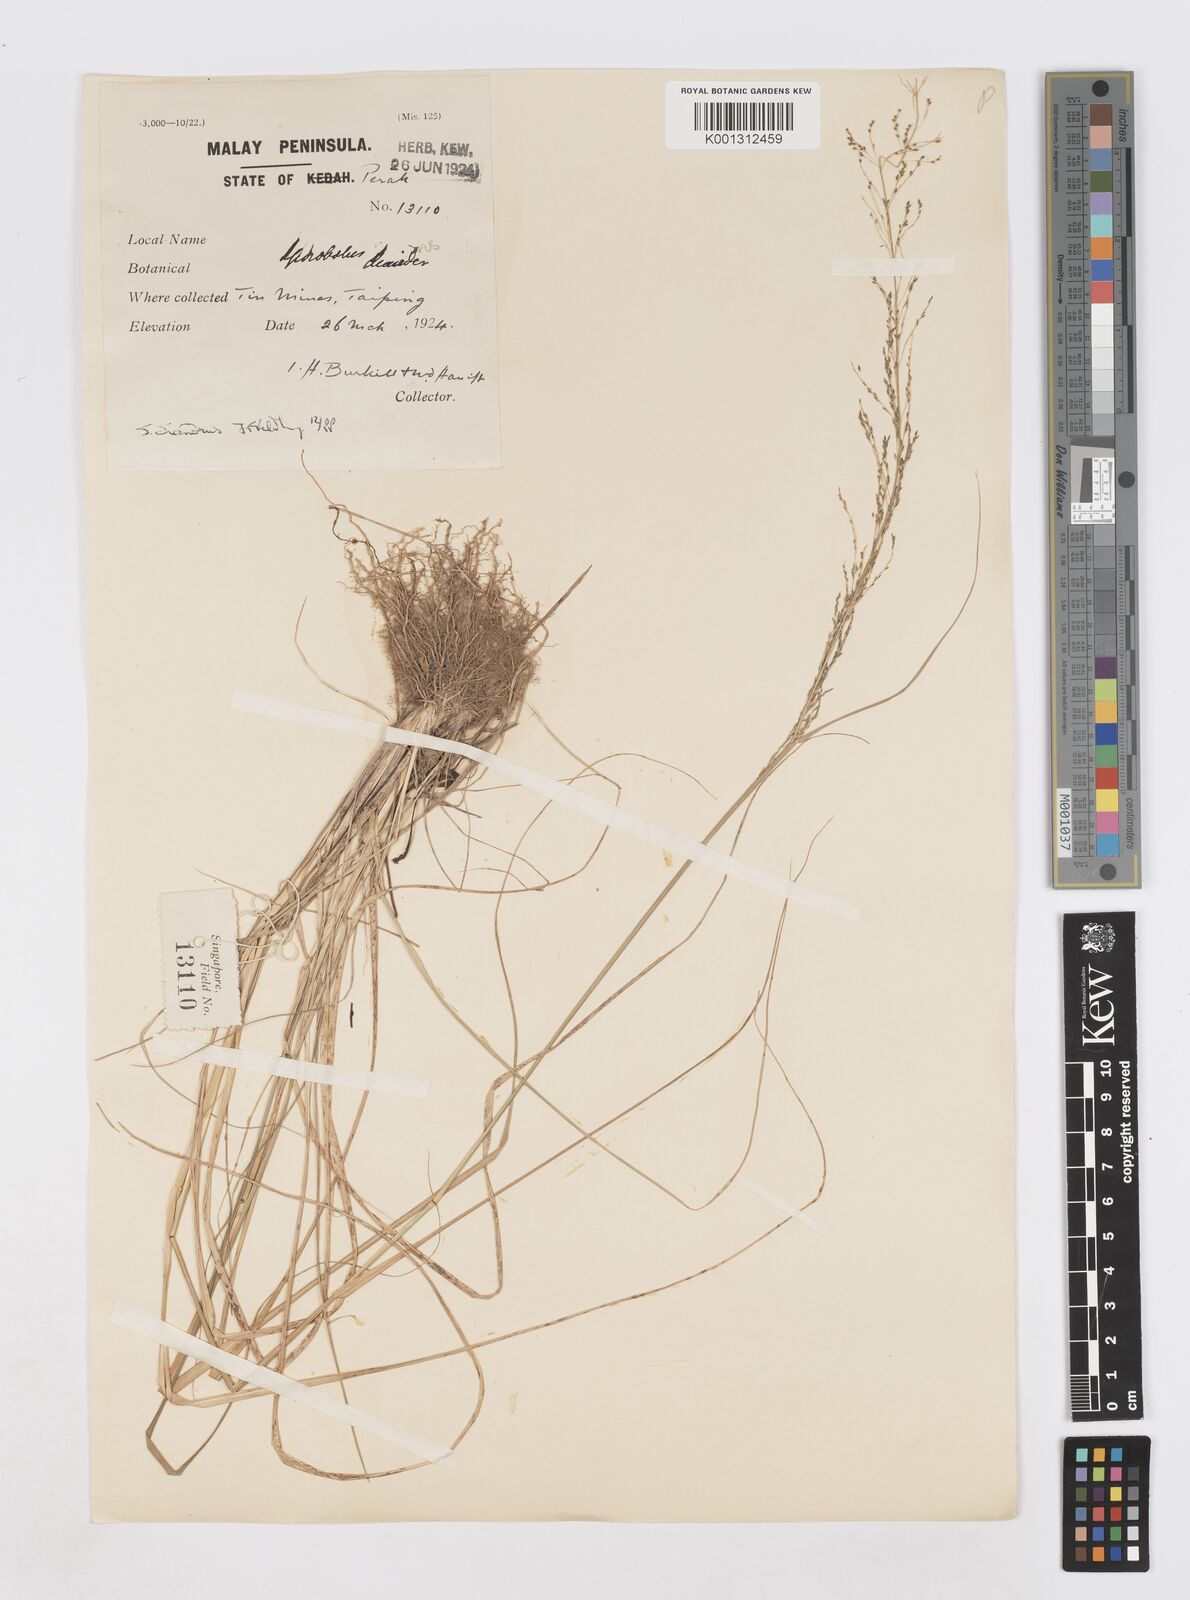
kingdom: Plantae
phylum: Tracheophyta
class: Liliopsida
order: Poales
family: Poaceae
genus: Sporobolus
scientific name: Sporobolus diandrus
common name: Tussock dropseed
